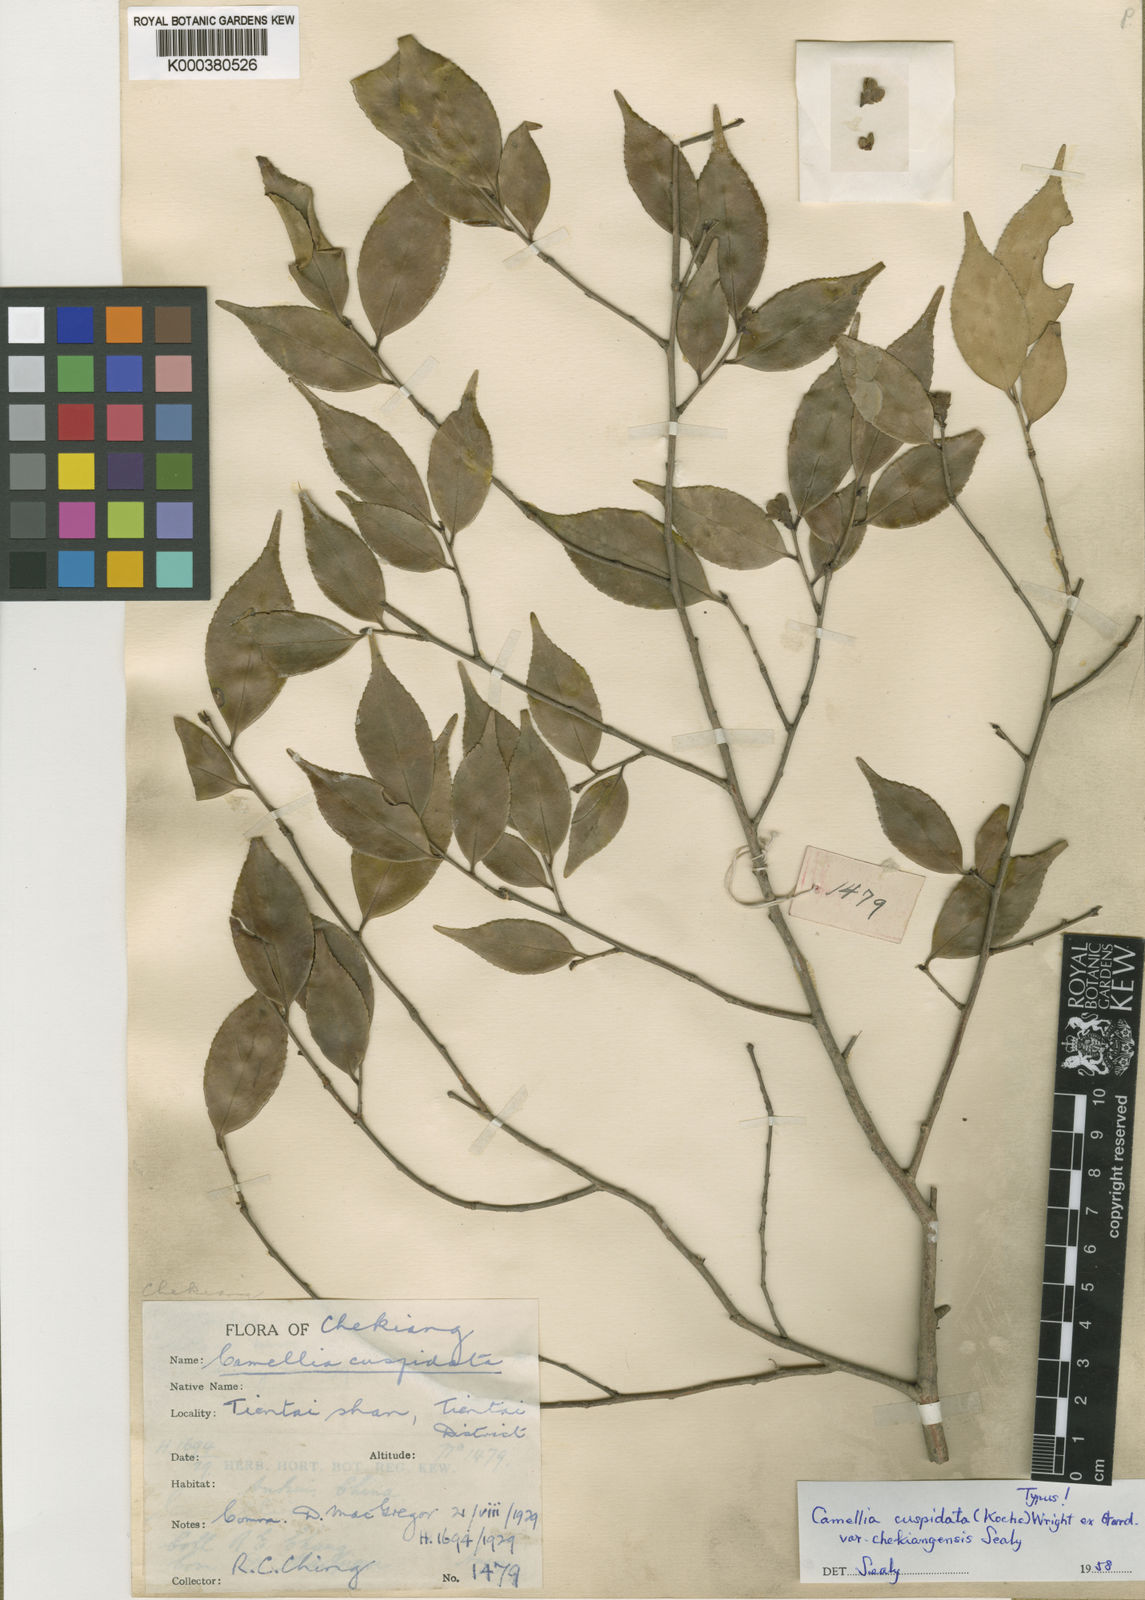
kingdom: Plantae
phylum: Tracheophyta
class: Magnoliopsida
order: Ericales
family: Theaceae
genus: Camellia
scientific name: Camellia cuspidata
